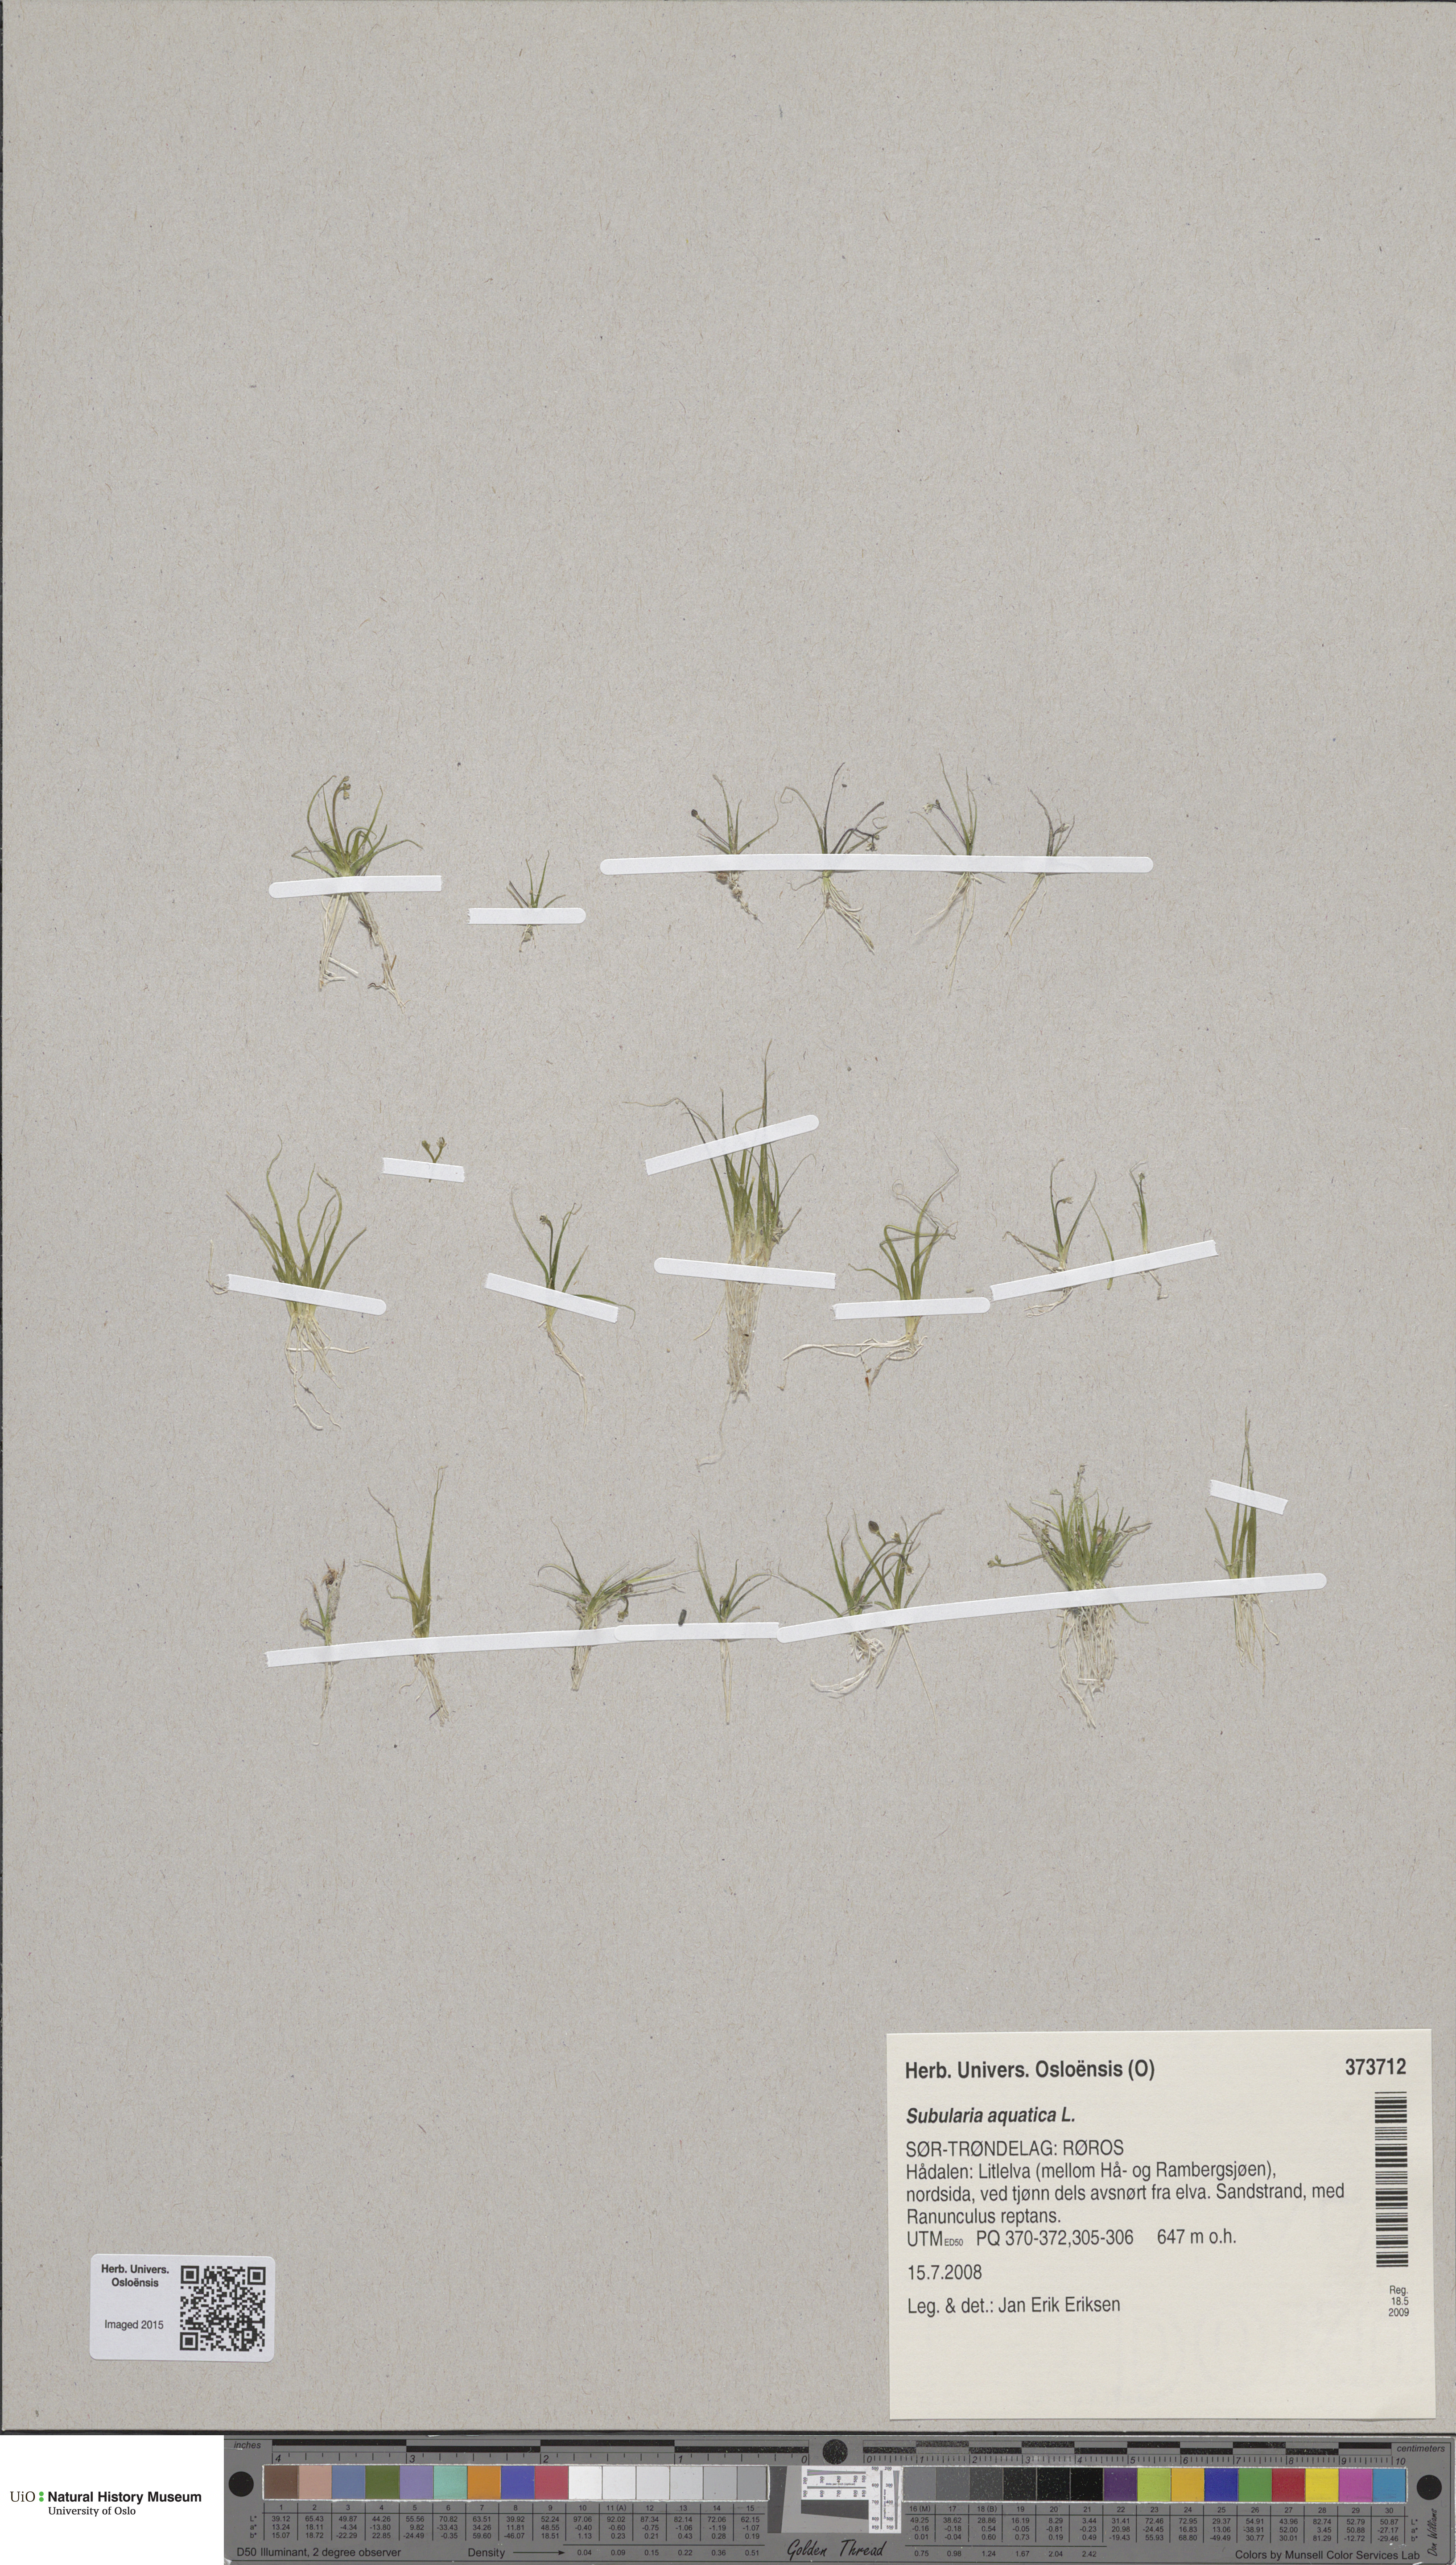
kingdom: Plantae
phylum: Tracheophyta
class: Magnoliopsida
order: Brassicales
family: Brassicaceae
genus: Subularia
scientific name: Subularia aquatica
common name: Awlwort
